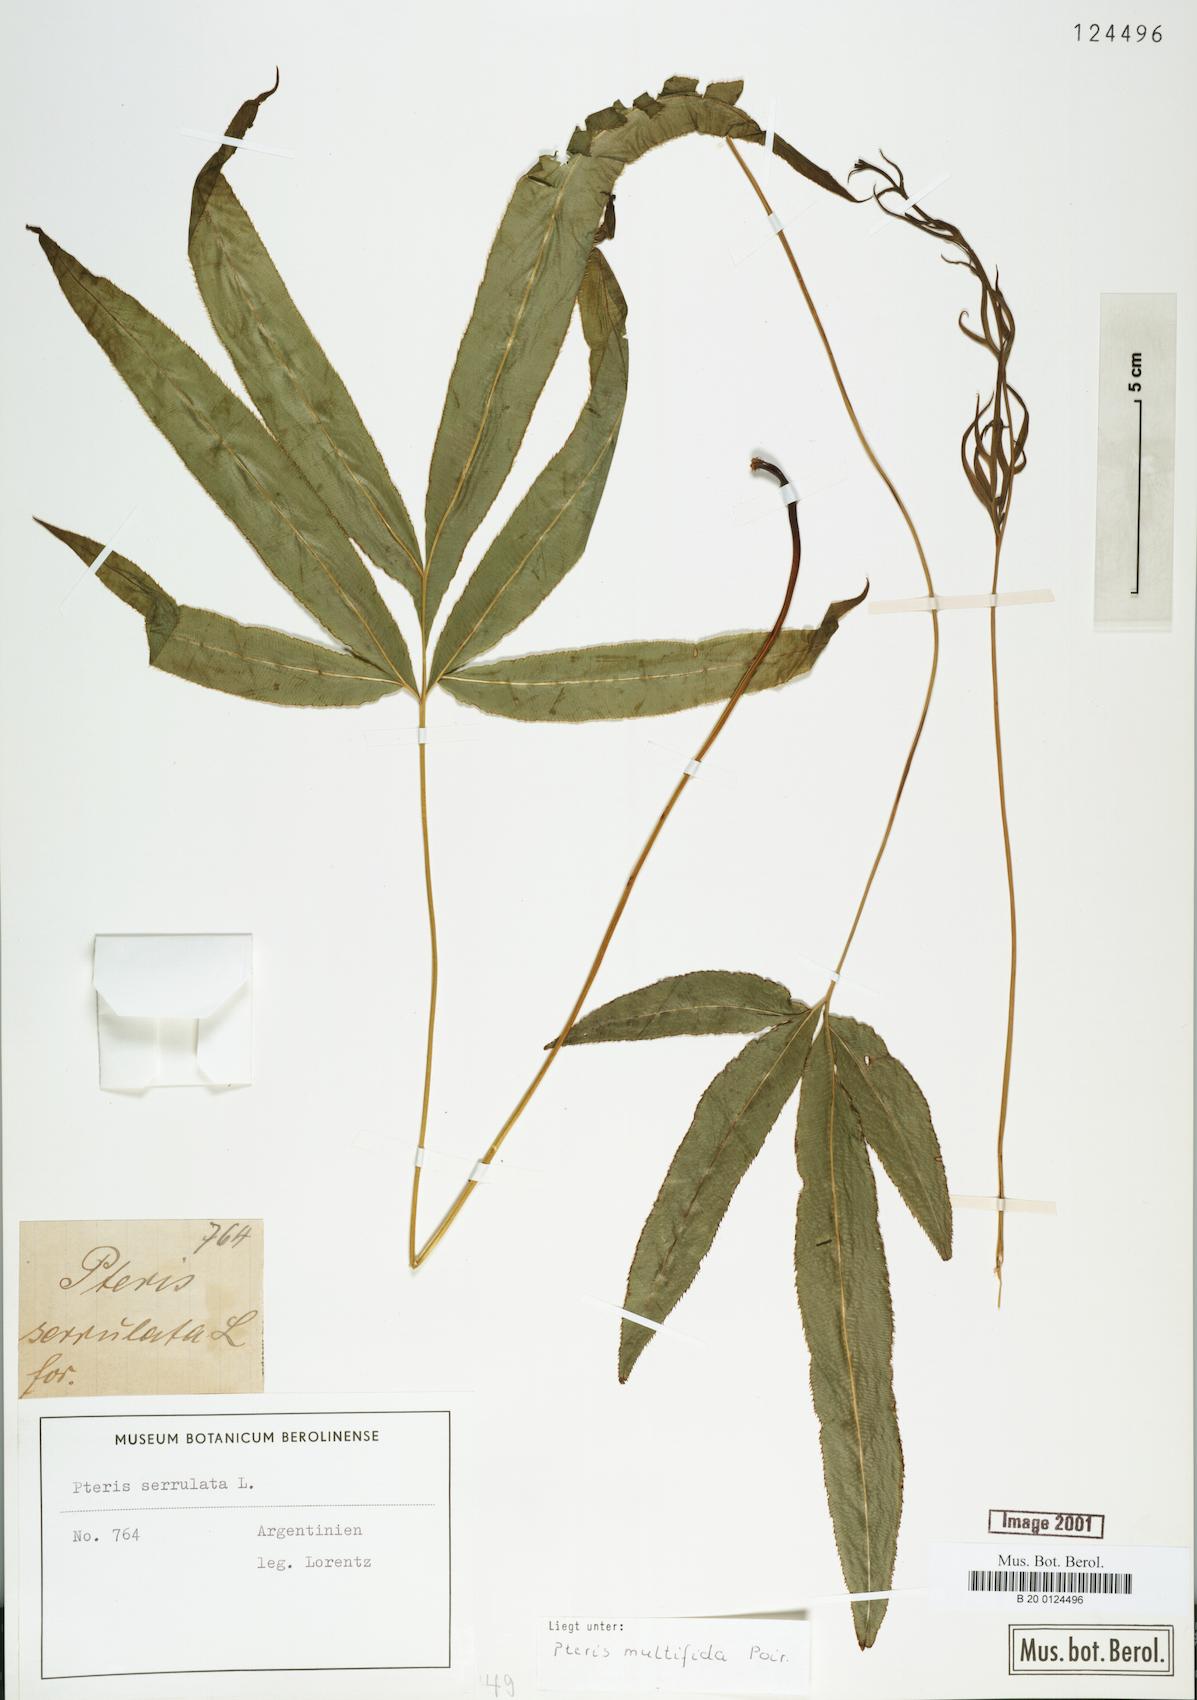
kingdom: Plantae
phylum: Tracheophyta
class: Polypodiopsida
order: Polypodiales
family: Pteridaceae
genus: Pteris
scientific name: Pteris multifida
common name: Spider brake
